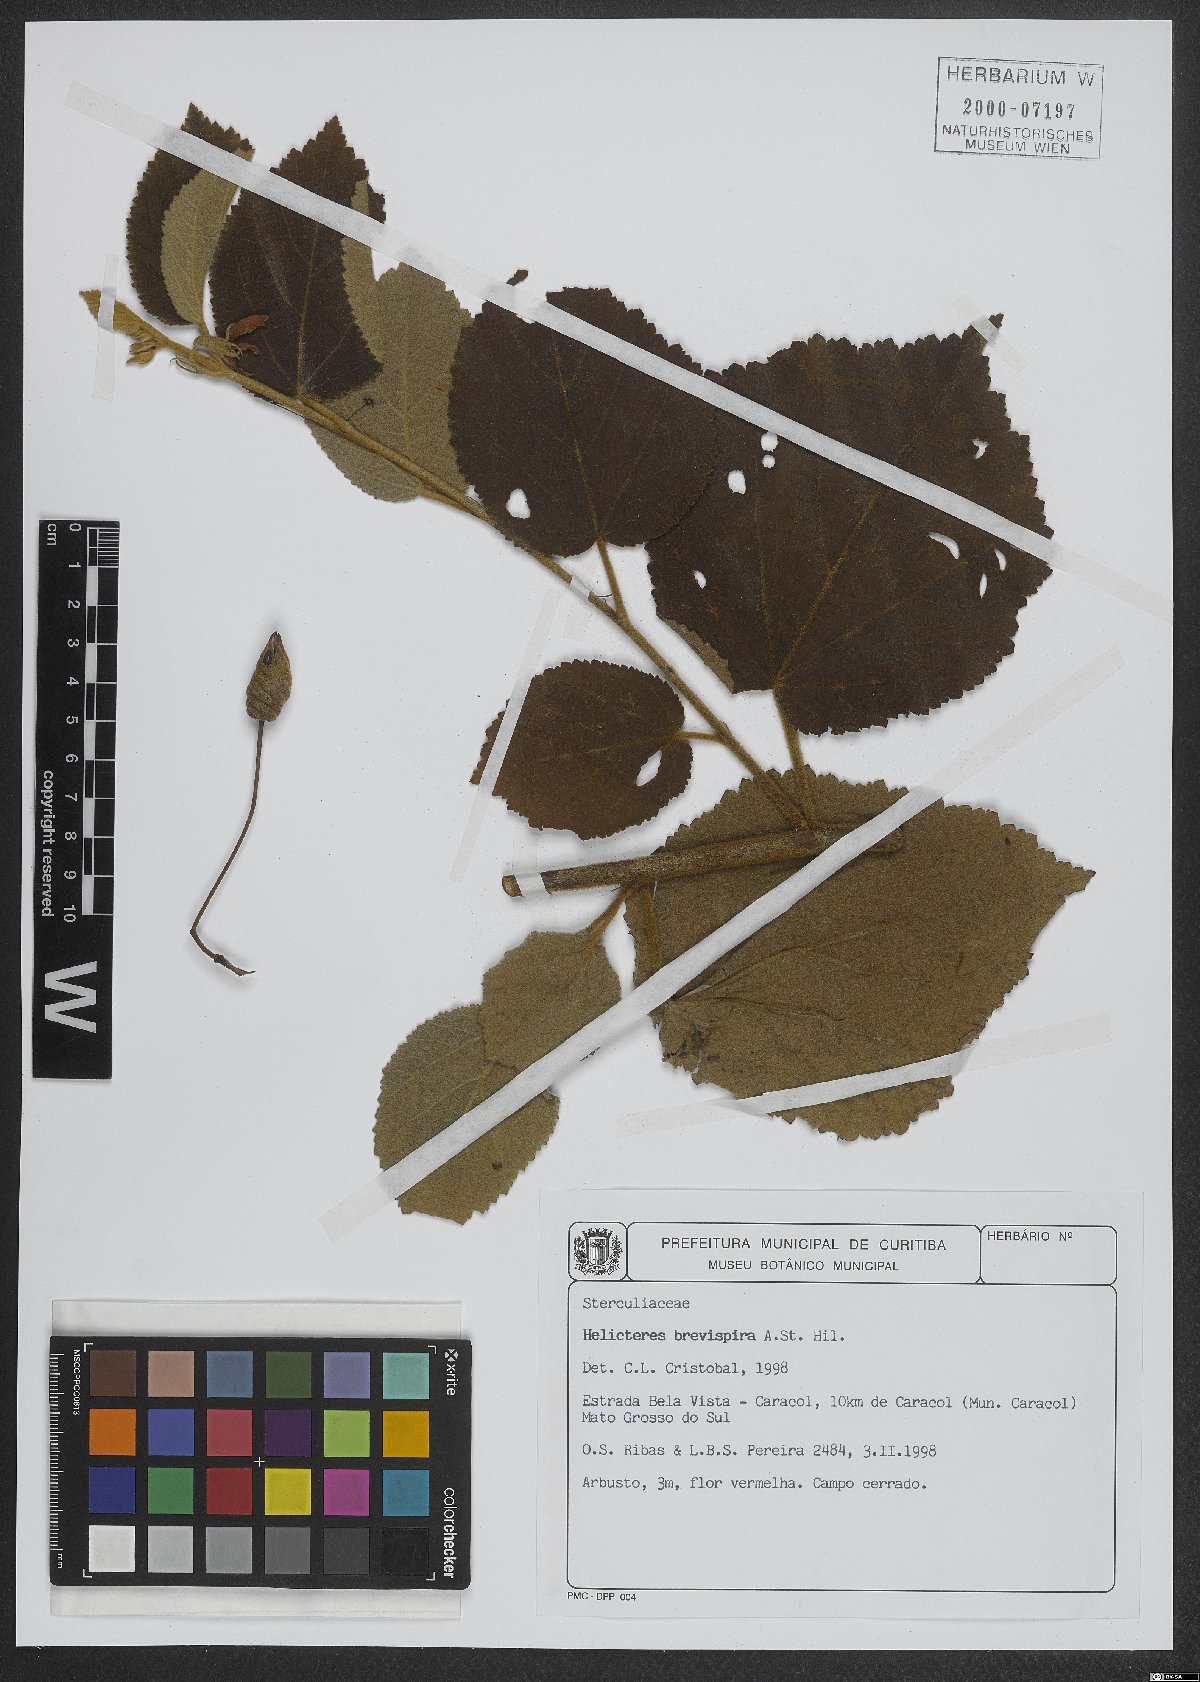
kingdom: Plantae
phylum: Tracheophyta
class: Magnoliopsida
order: Malvales
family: Malvaceae
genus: Helicteres
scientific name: Helicteres brevispira
